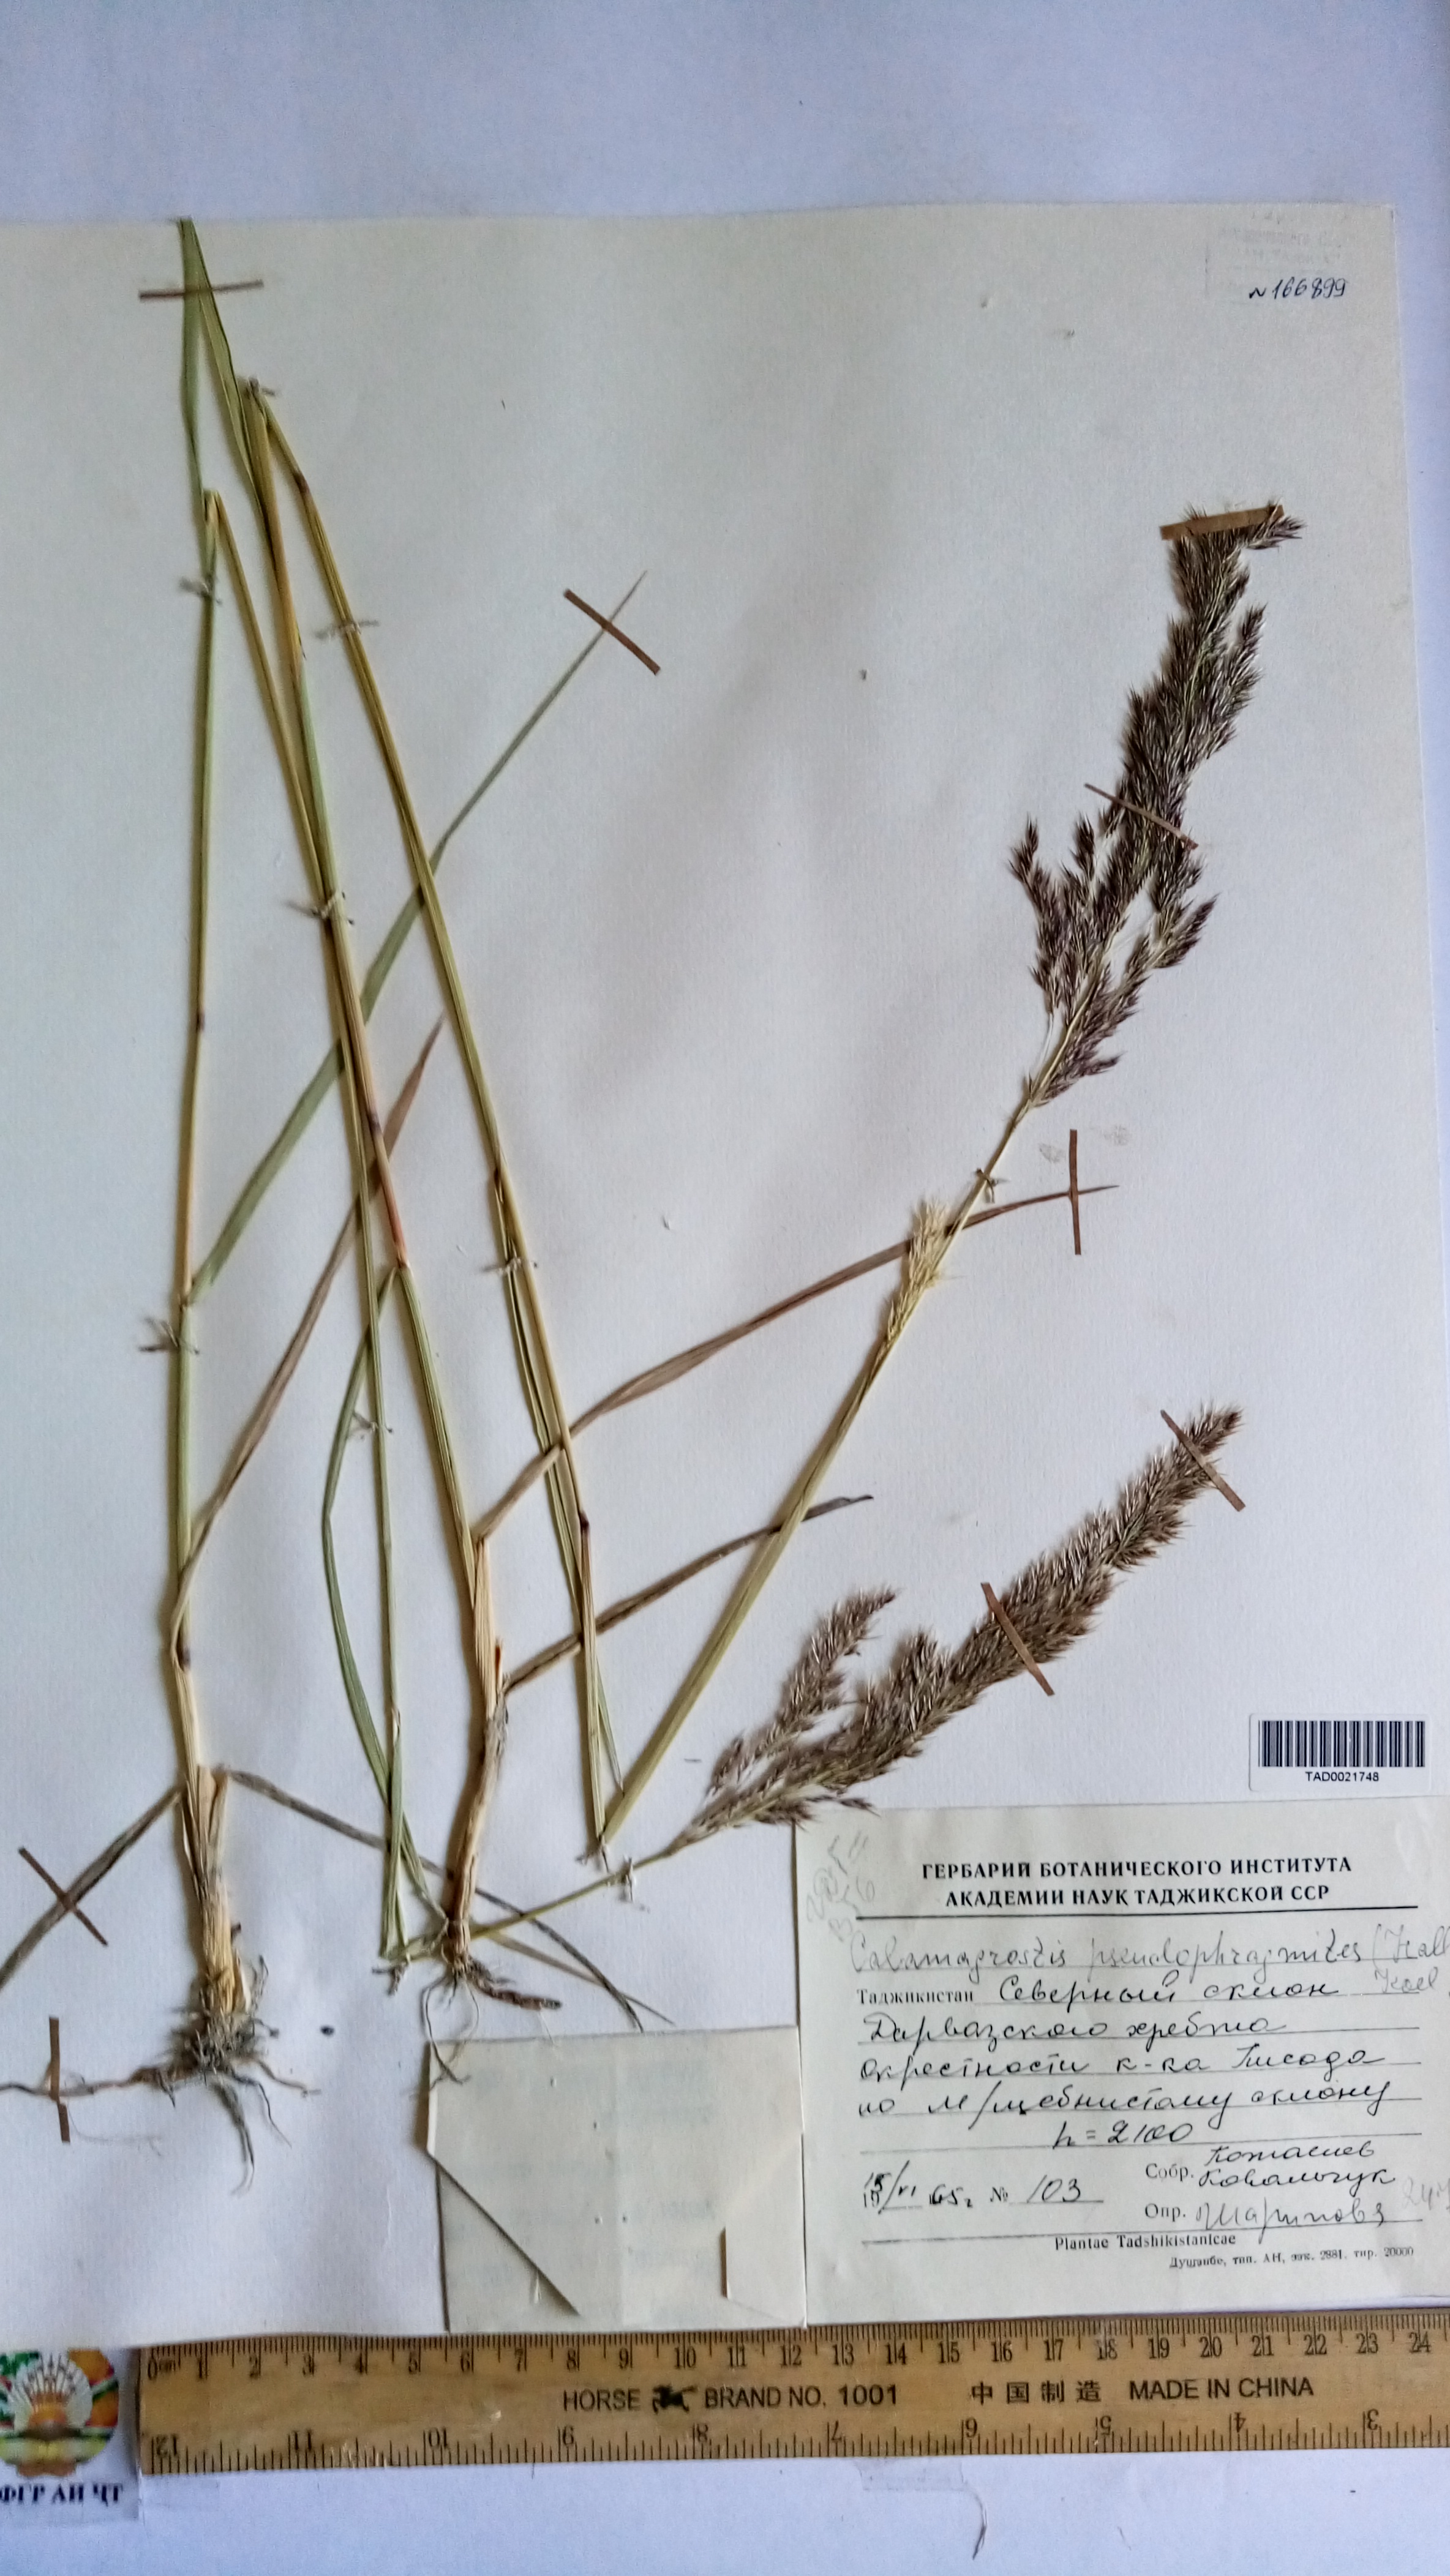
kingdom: Plantae
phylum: Tracheophyta
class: Liliopsida
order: Poales
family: Poaceae
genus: Calamagrostis
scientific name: Calamagrostis pseudophragmites
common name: Coastal small-reed
